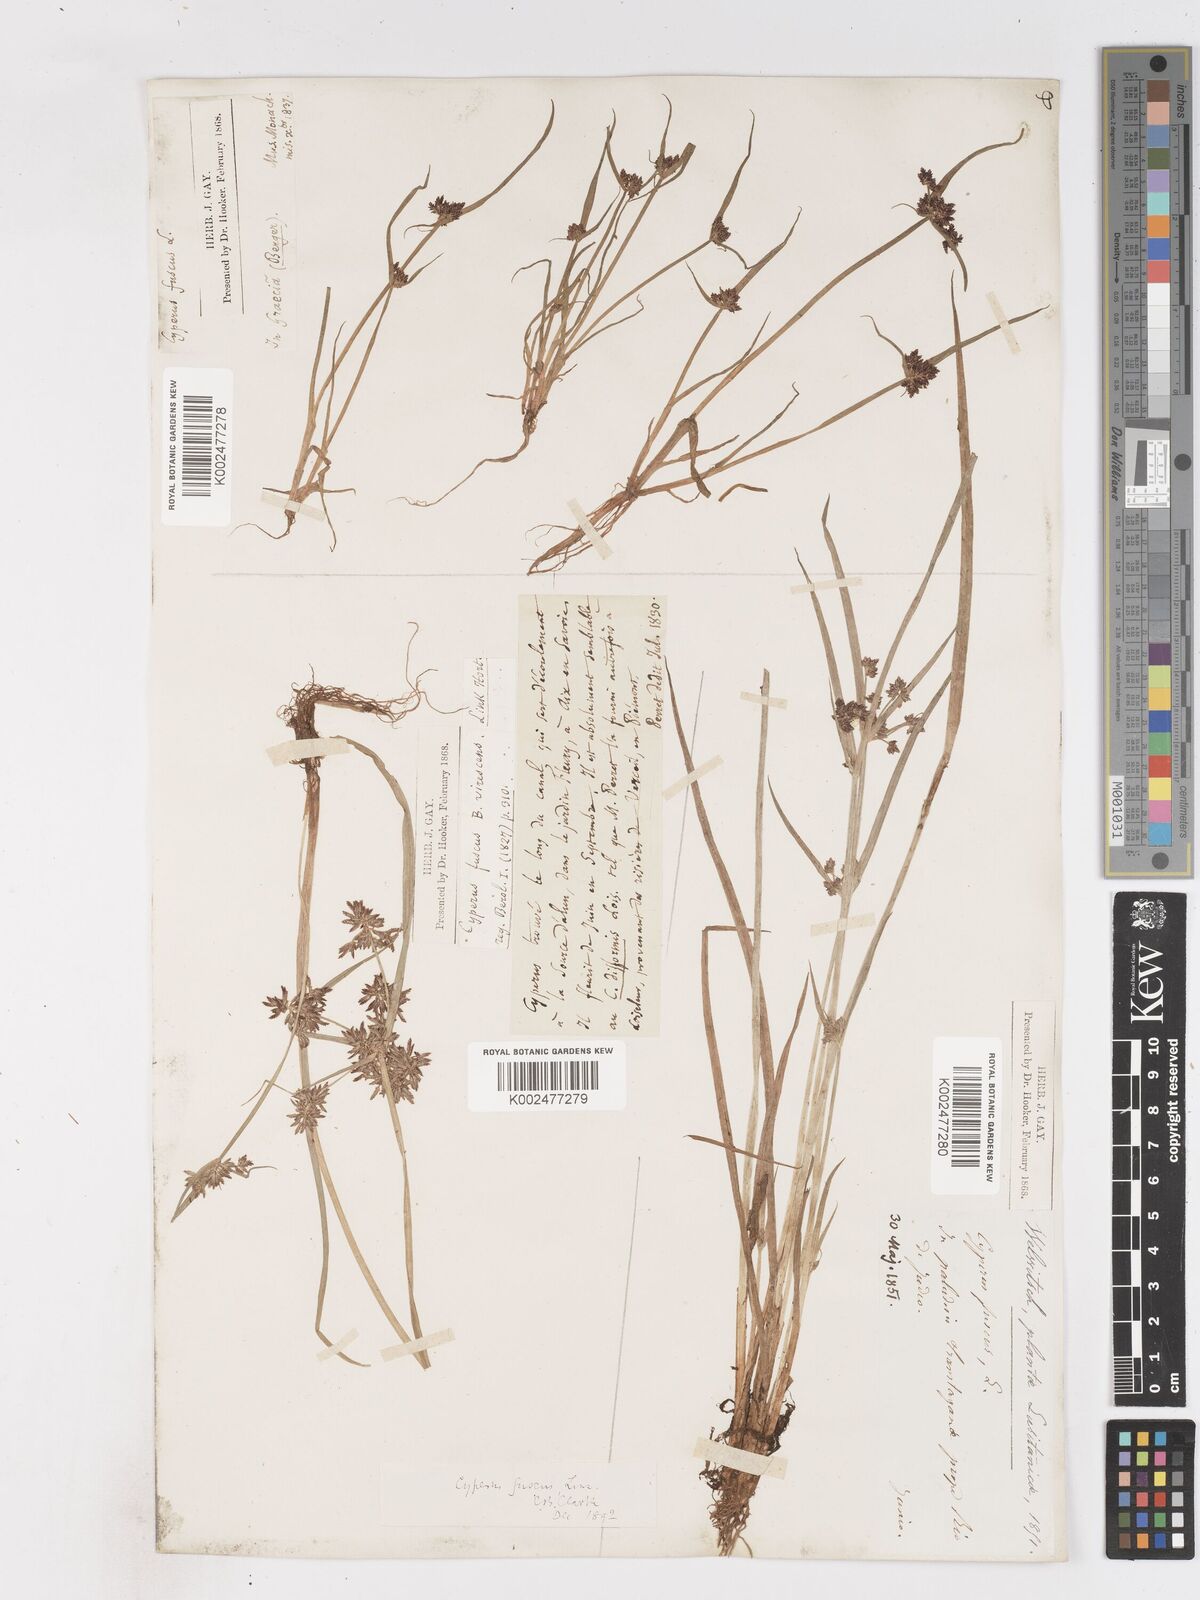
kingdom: Plantae
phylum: Tracheophyta
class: Liliopsida
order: Poales
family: Cyperaceae
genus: Cyperus
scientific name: Cyperus fuscus
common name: Brown galingale
